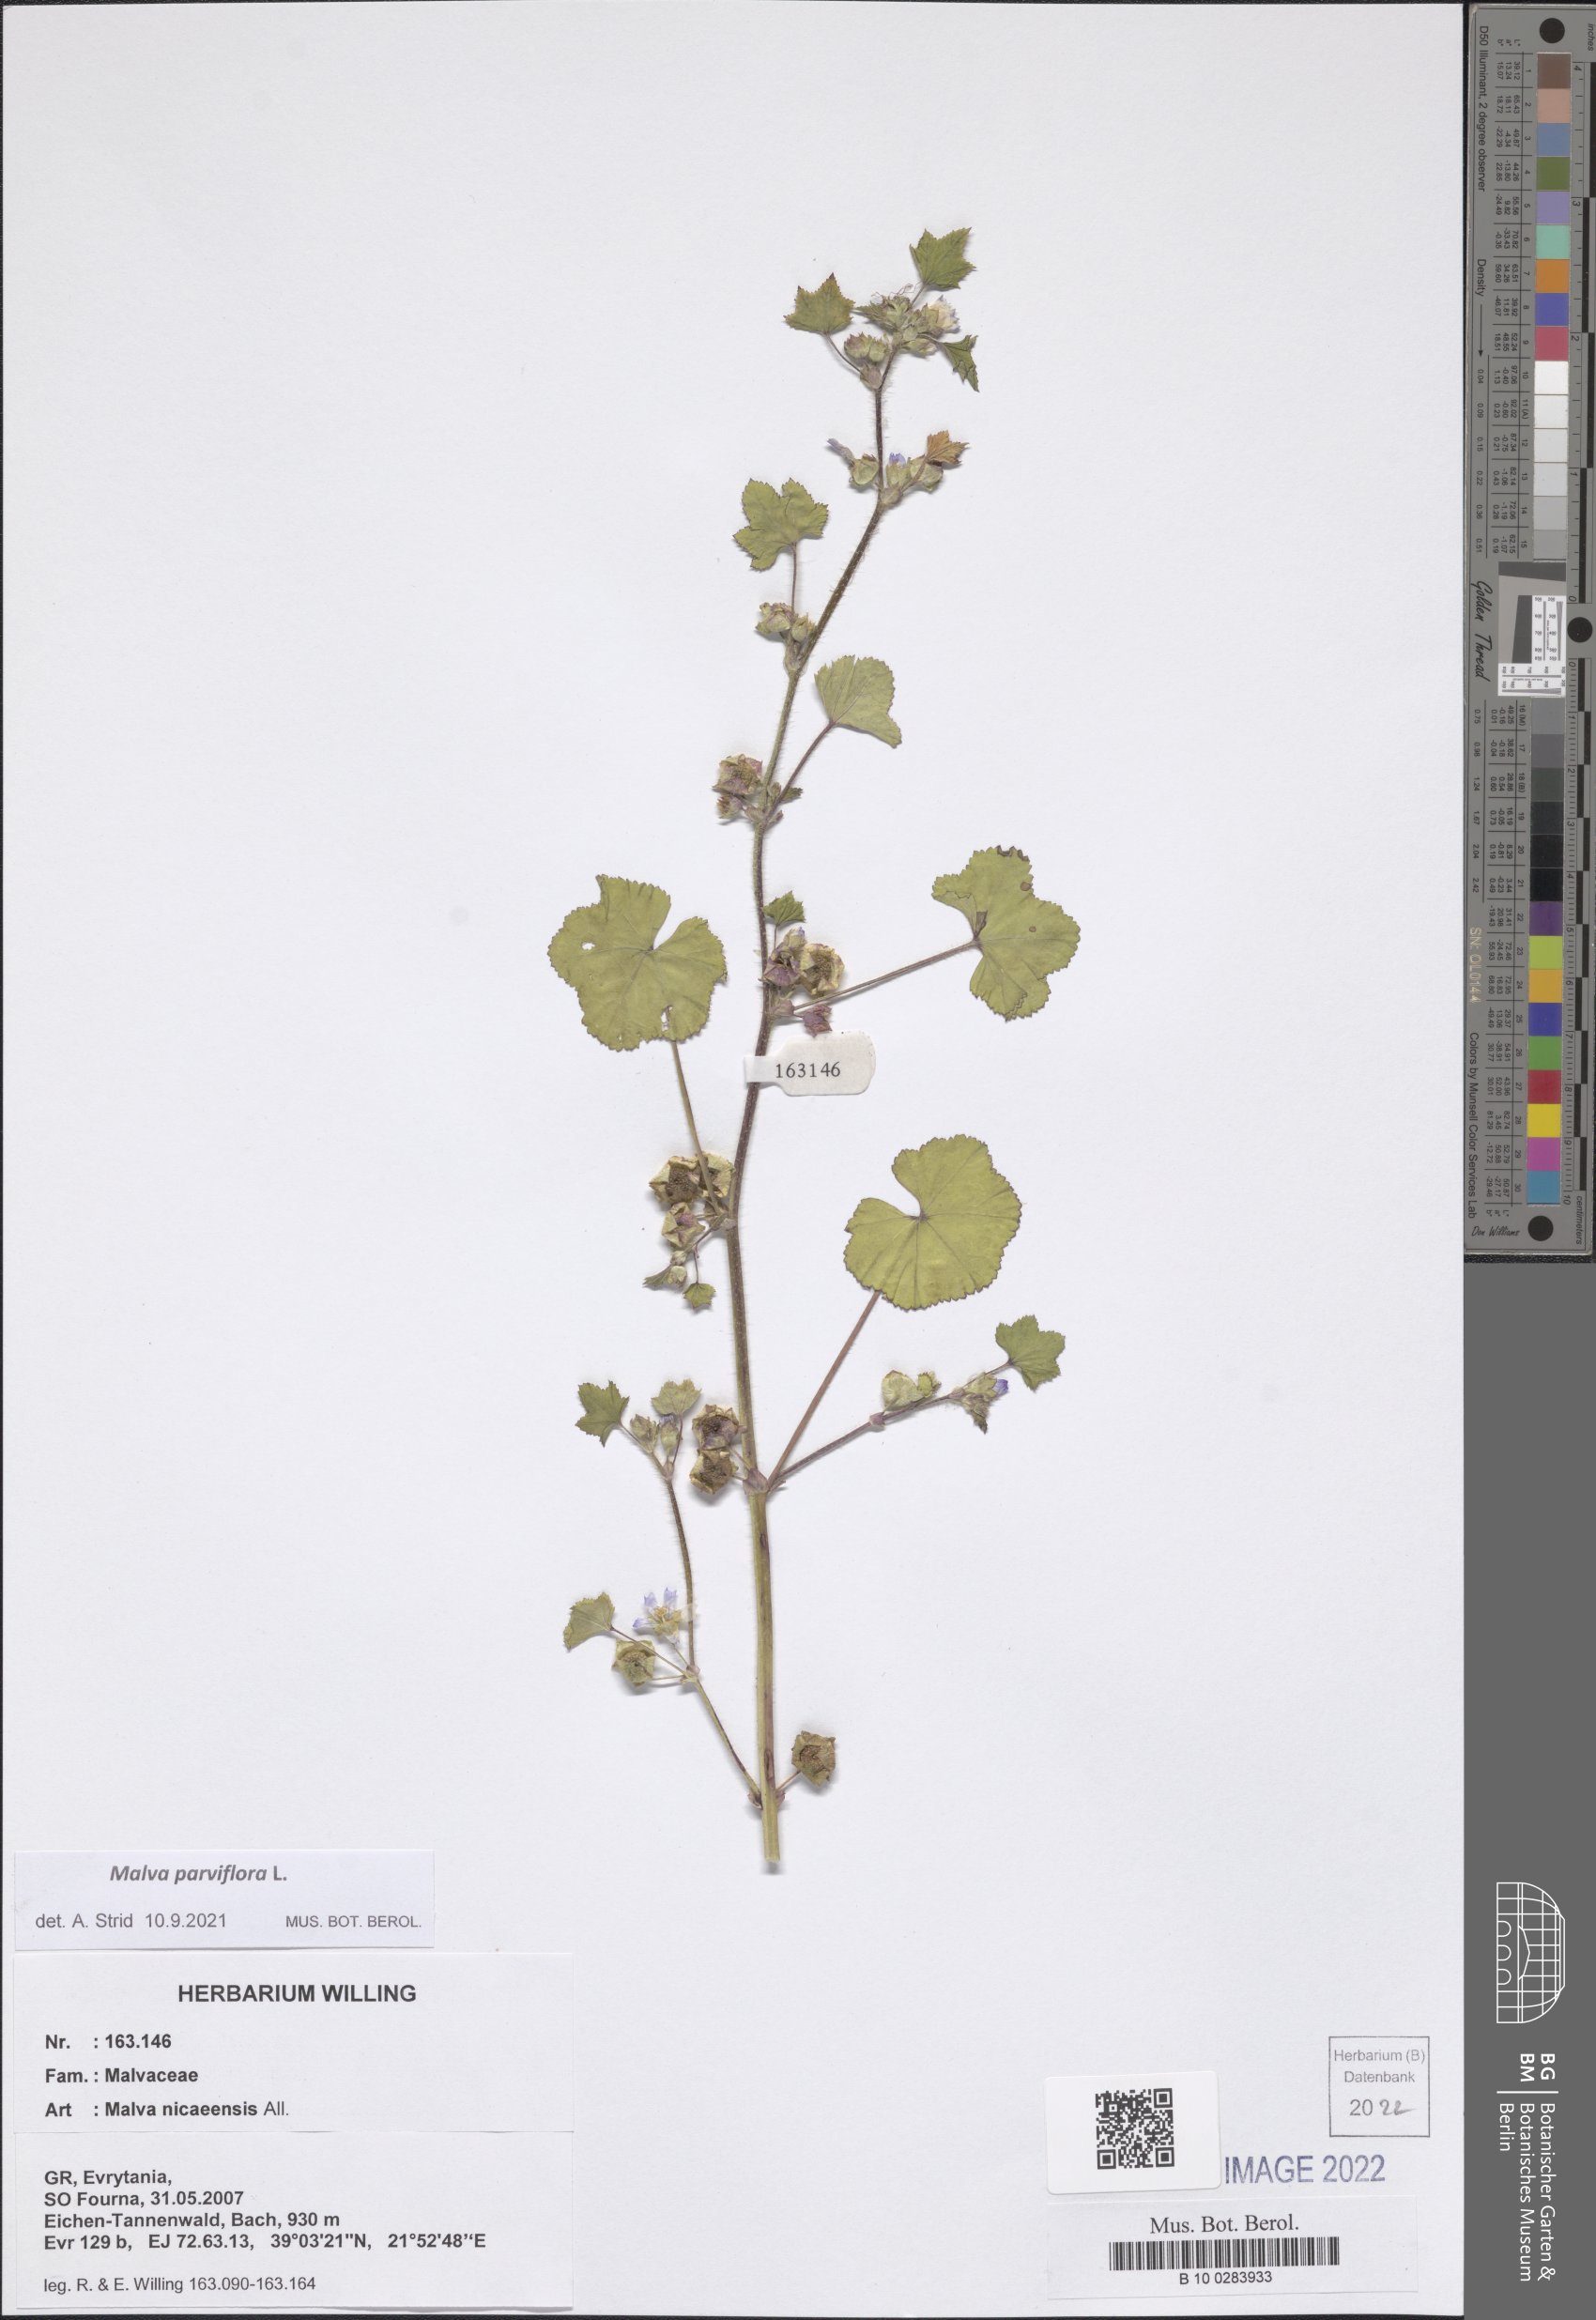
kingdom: Plantae
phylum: Tracheophyta
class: Magnoliopsida
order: Malvales
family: Malvaceae
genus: Malva
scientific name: Malva parviflora
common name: Least mallow
